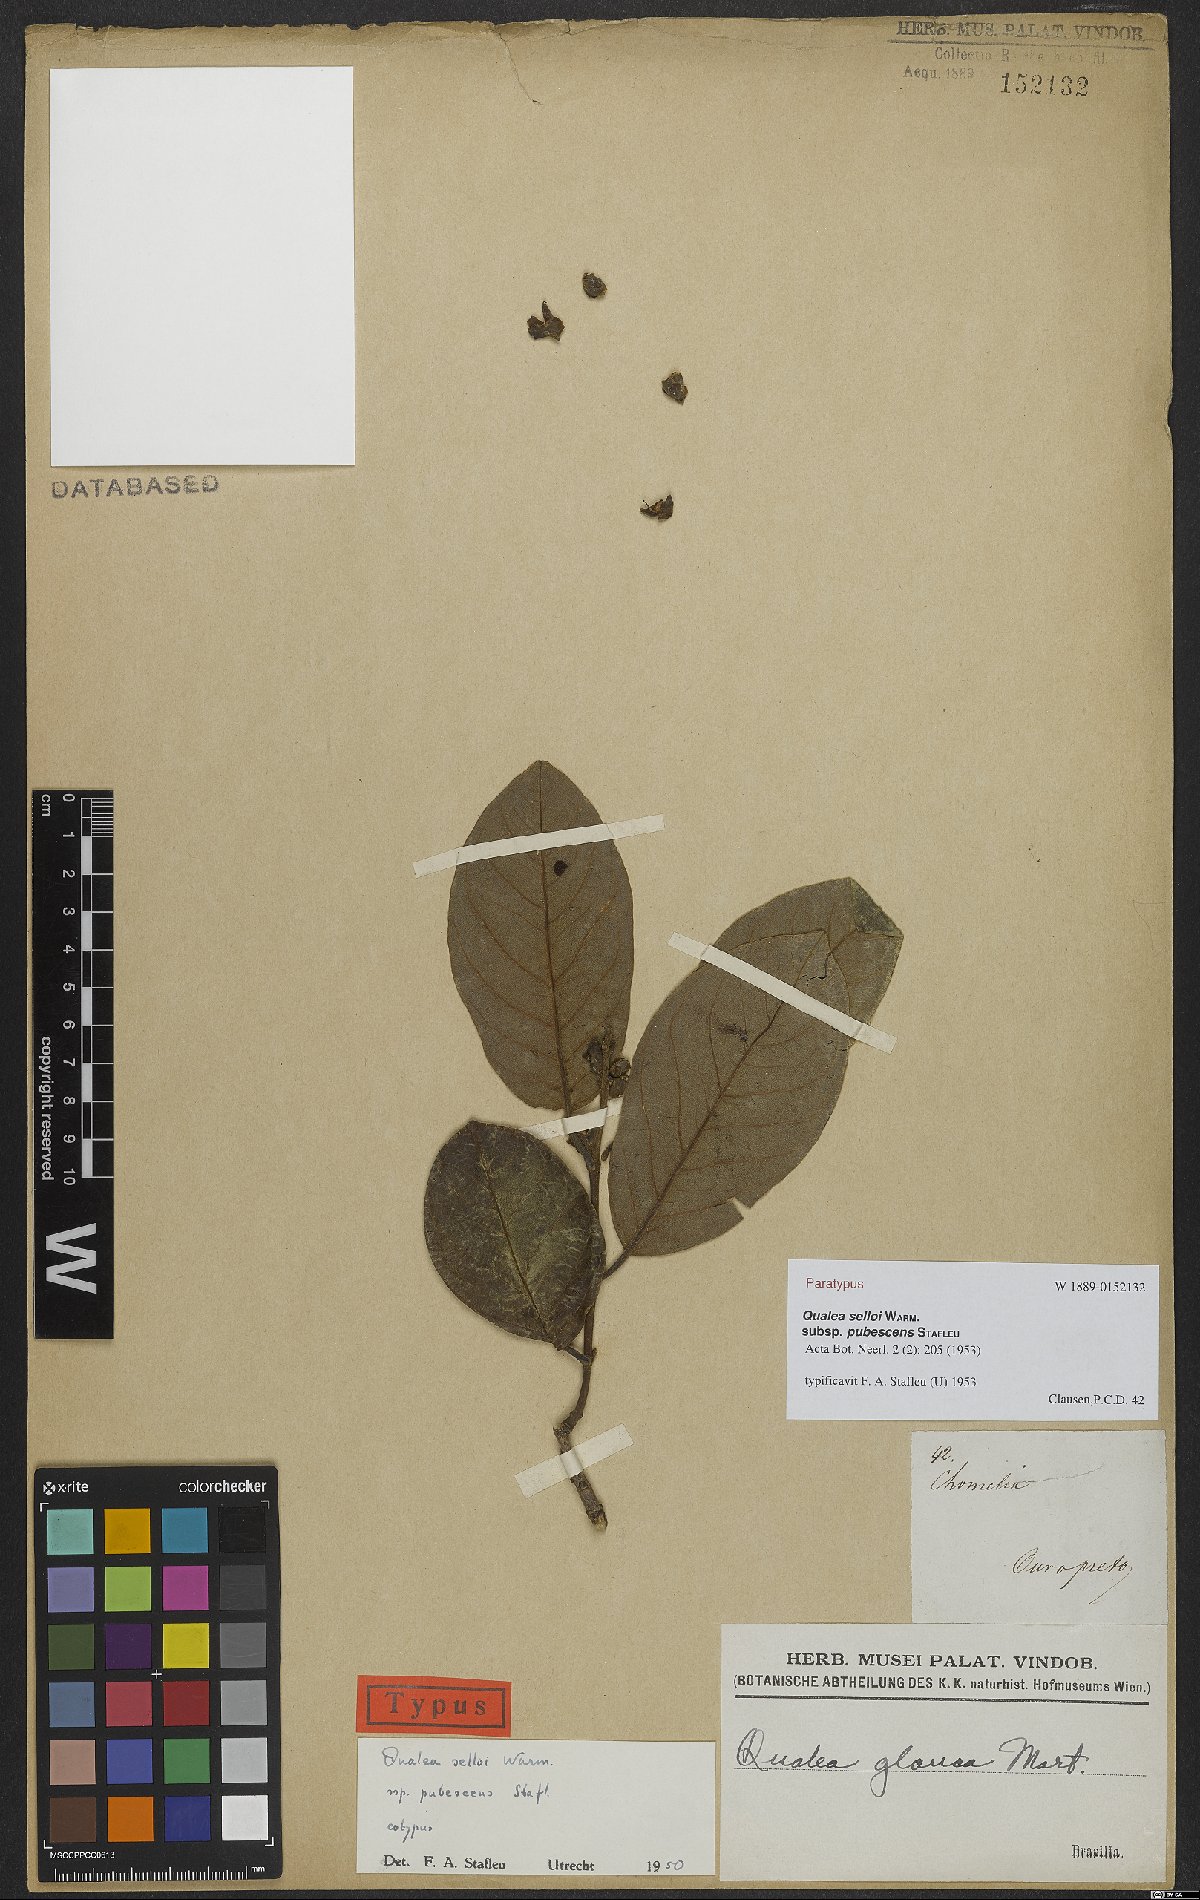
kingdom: Plantae
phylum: Tracheophyta
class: Magnoliopsida
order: Myrtales
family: Vochysiaceae
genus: Qualea
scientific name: Qualea selloi
